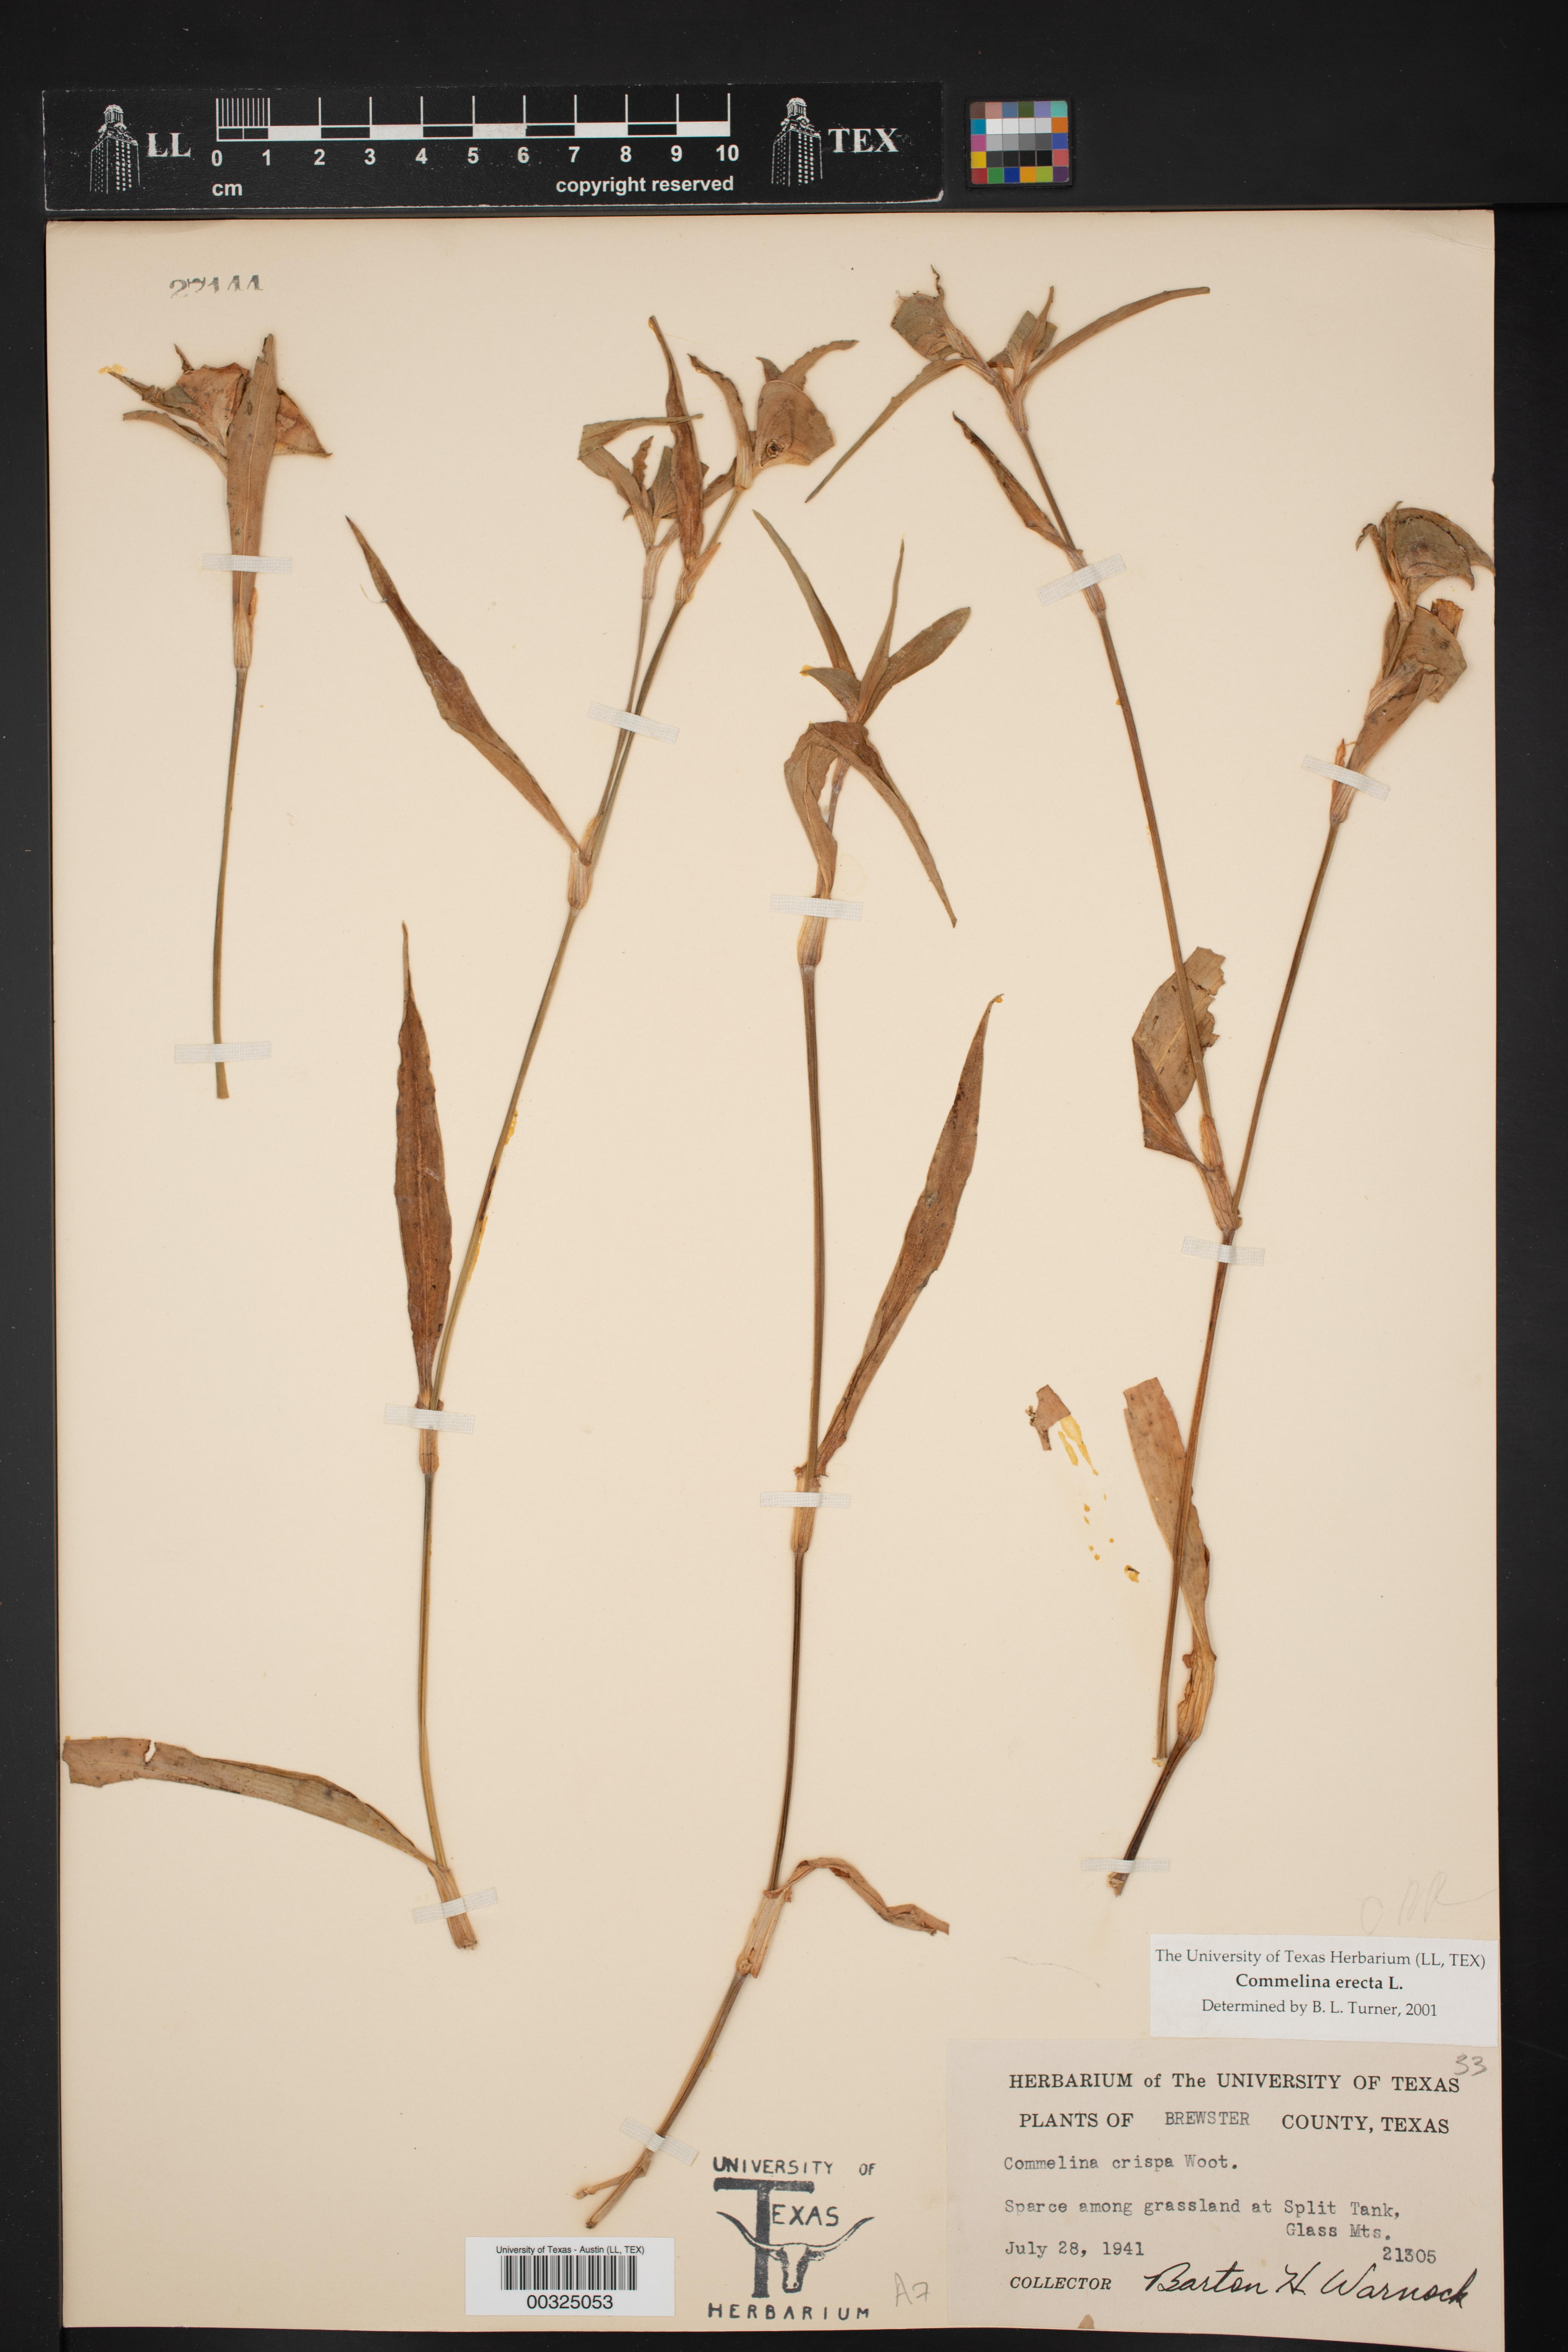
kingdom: Plantae
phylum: Tracheophyta
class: Liliopsida
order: Commelinales
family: Commelinaceae
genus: Commelina
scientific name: Commelina erecta
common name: Blousel blommetjie
